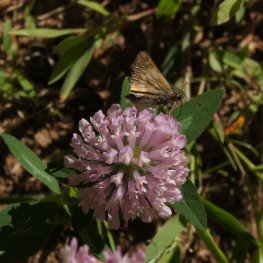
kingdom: Animalia
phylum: Arthropoda
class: Insecta
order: Lepidoptera
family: Hesperiidae
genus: Polites
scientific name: Polites
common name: Long Dash Skipper
